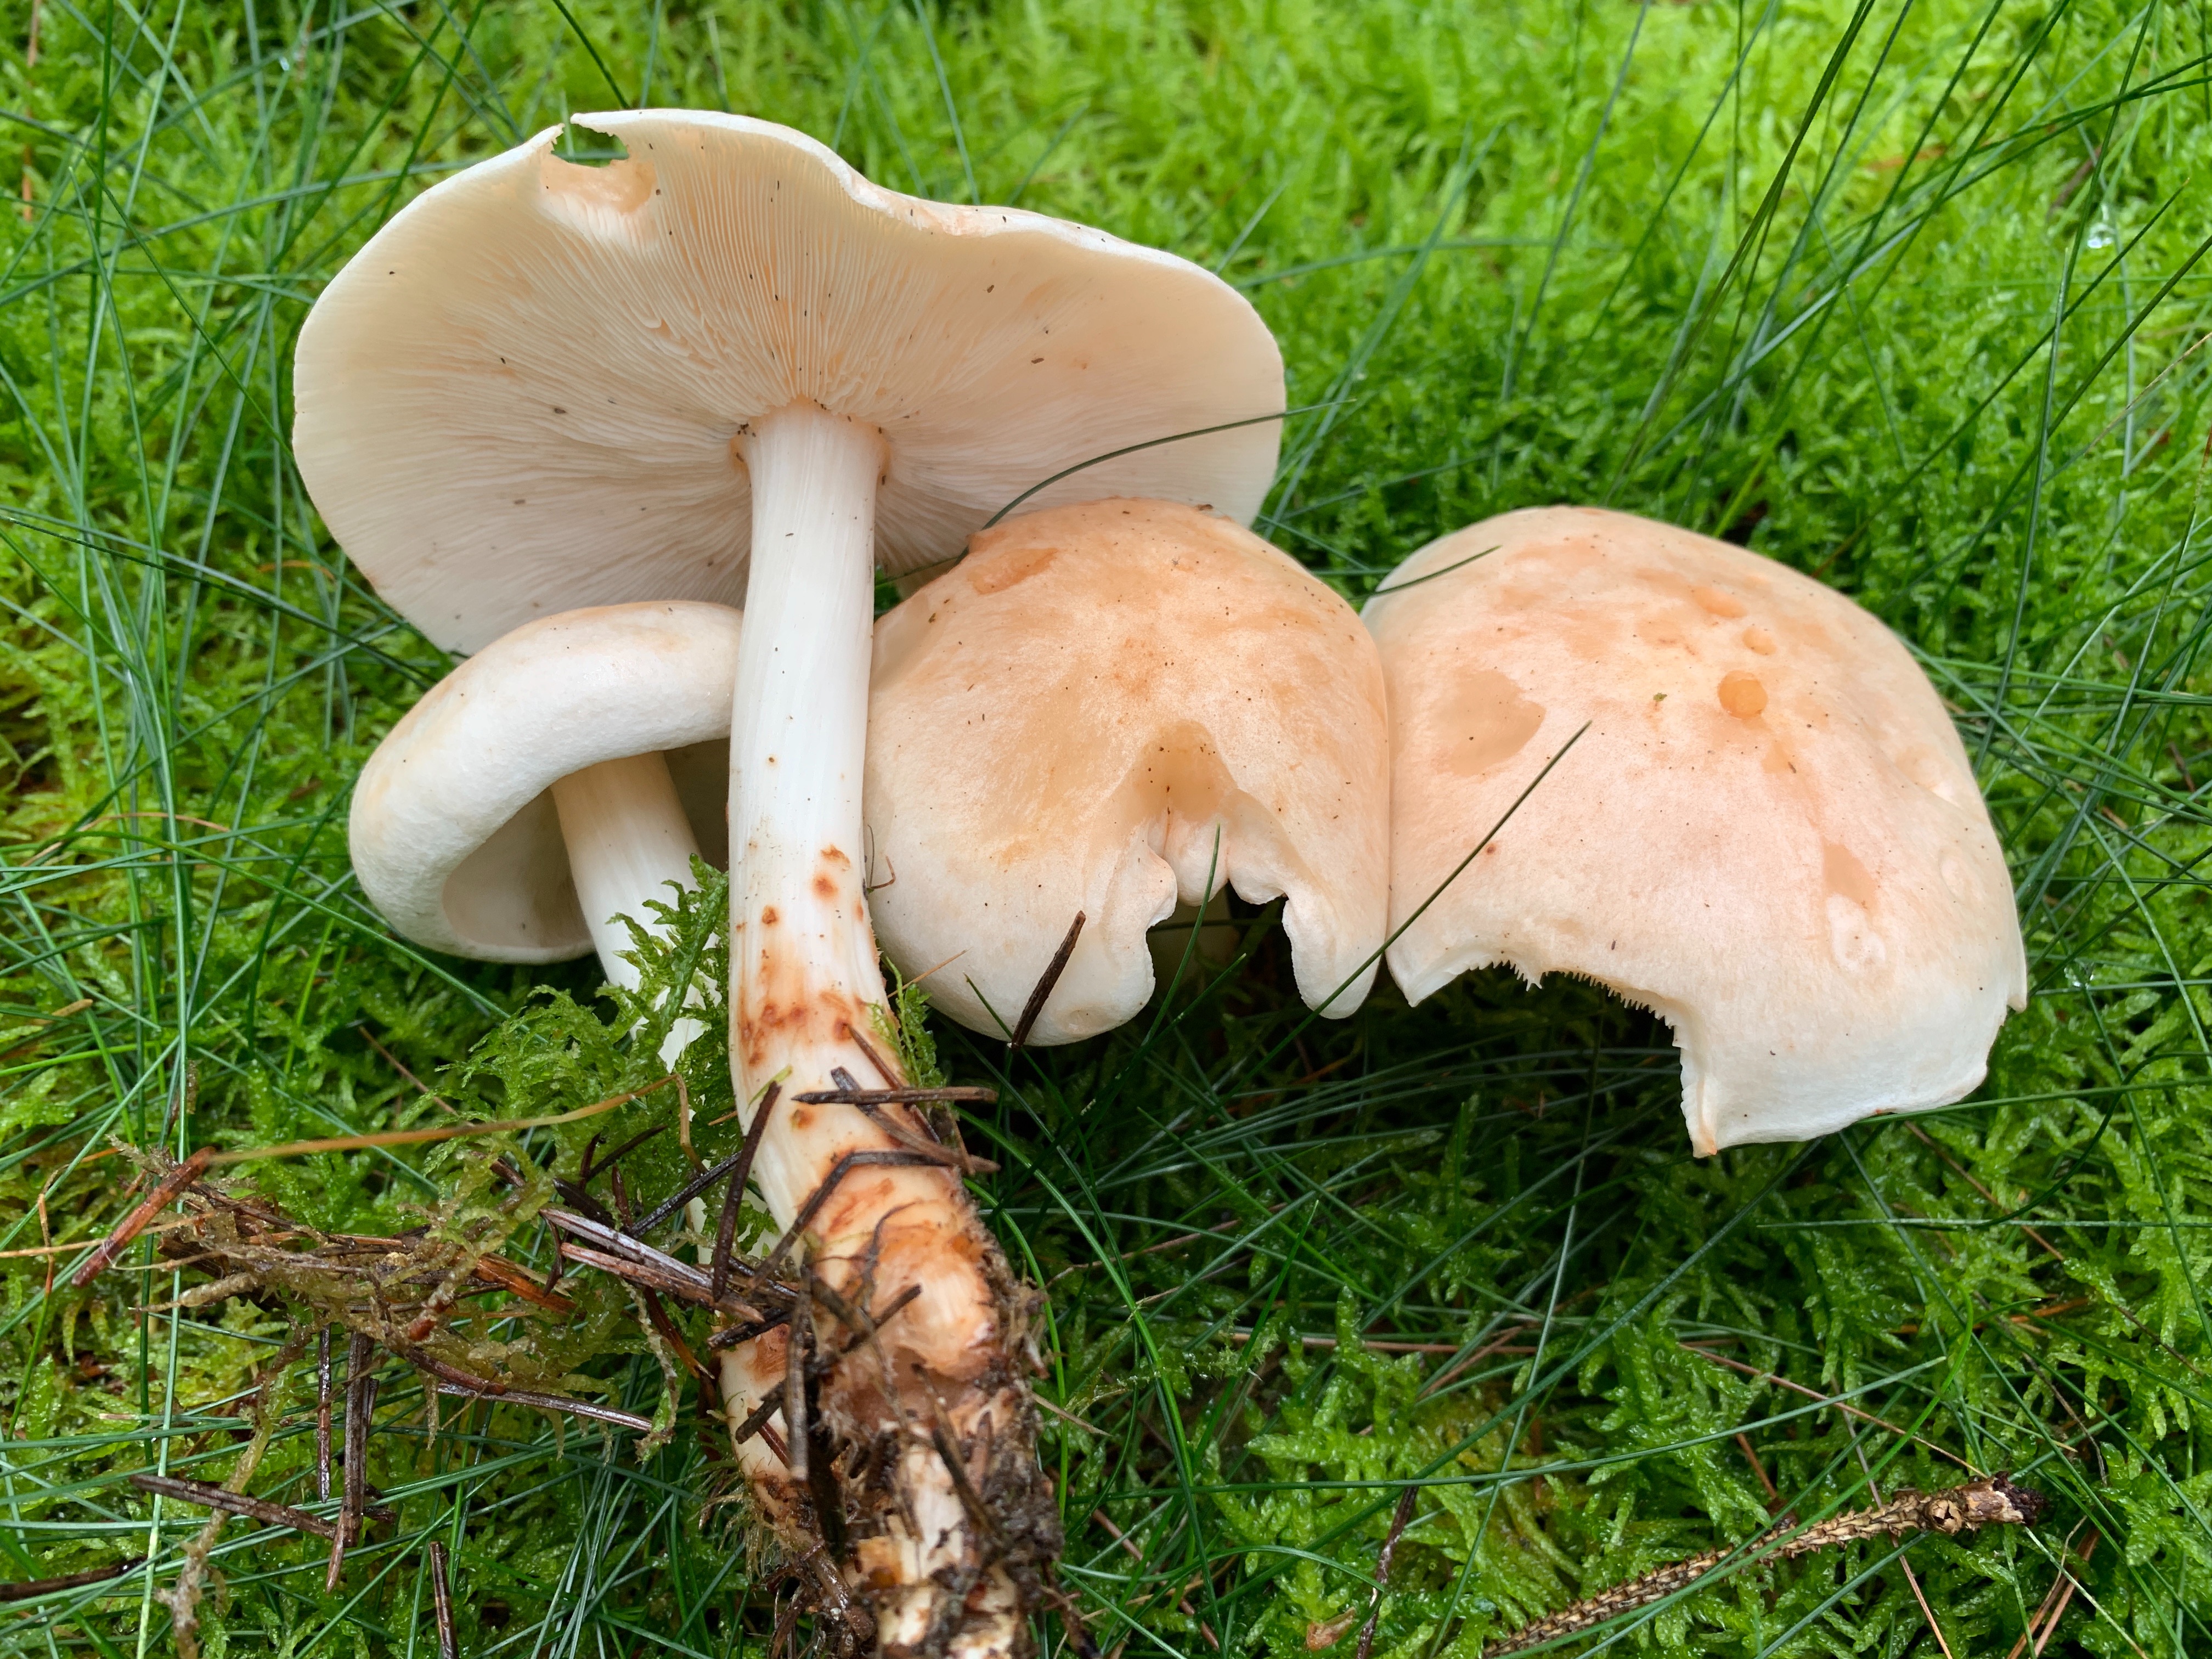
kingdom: Fungi
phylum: Basidiomycota
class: Agaricomycetes
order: Agaricales
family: Omphalotaceae
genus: Rhodocollybia
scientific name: Rhodocollybia maculata
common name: plettet fladhat
